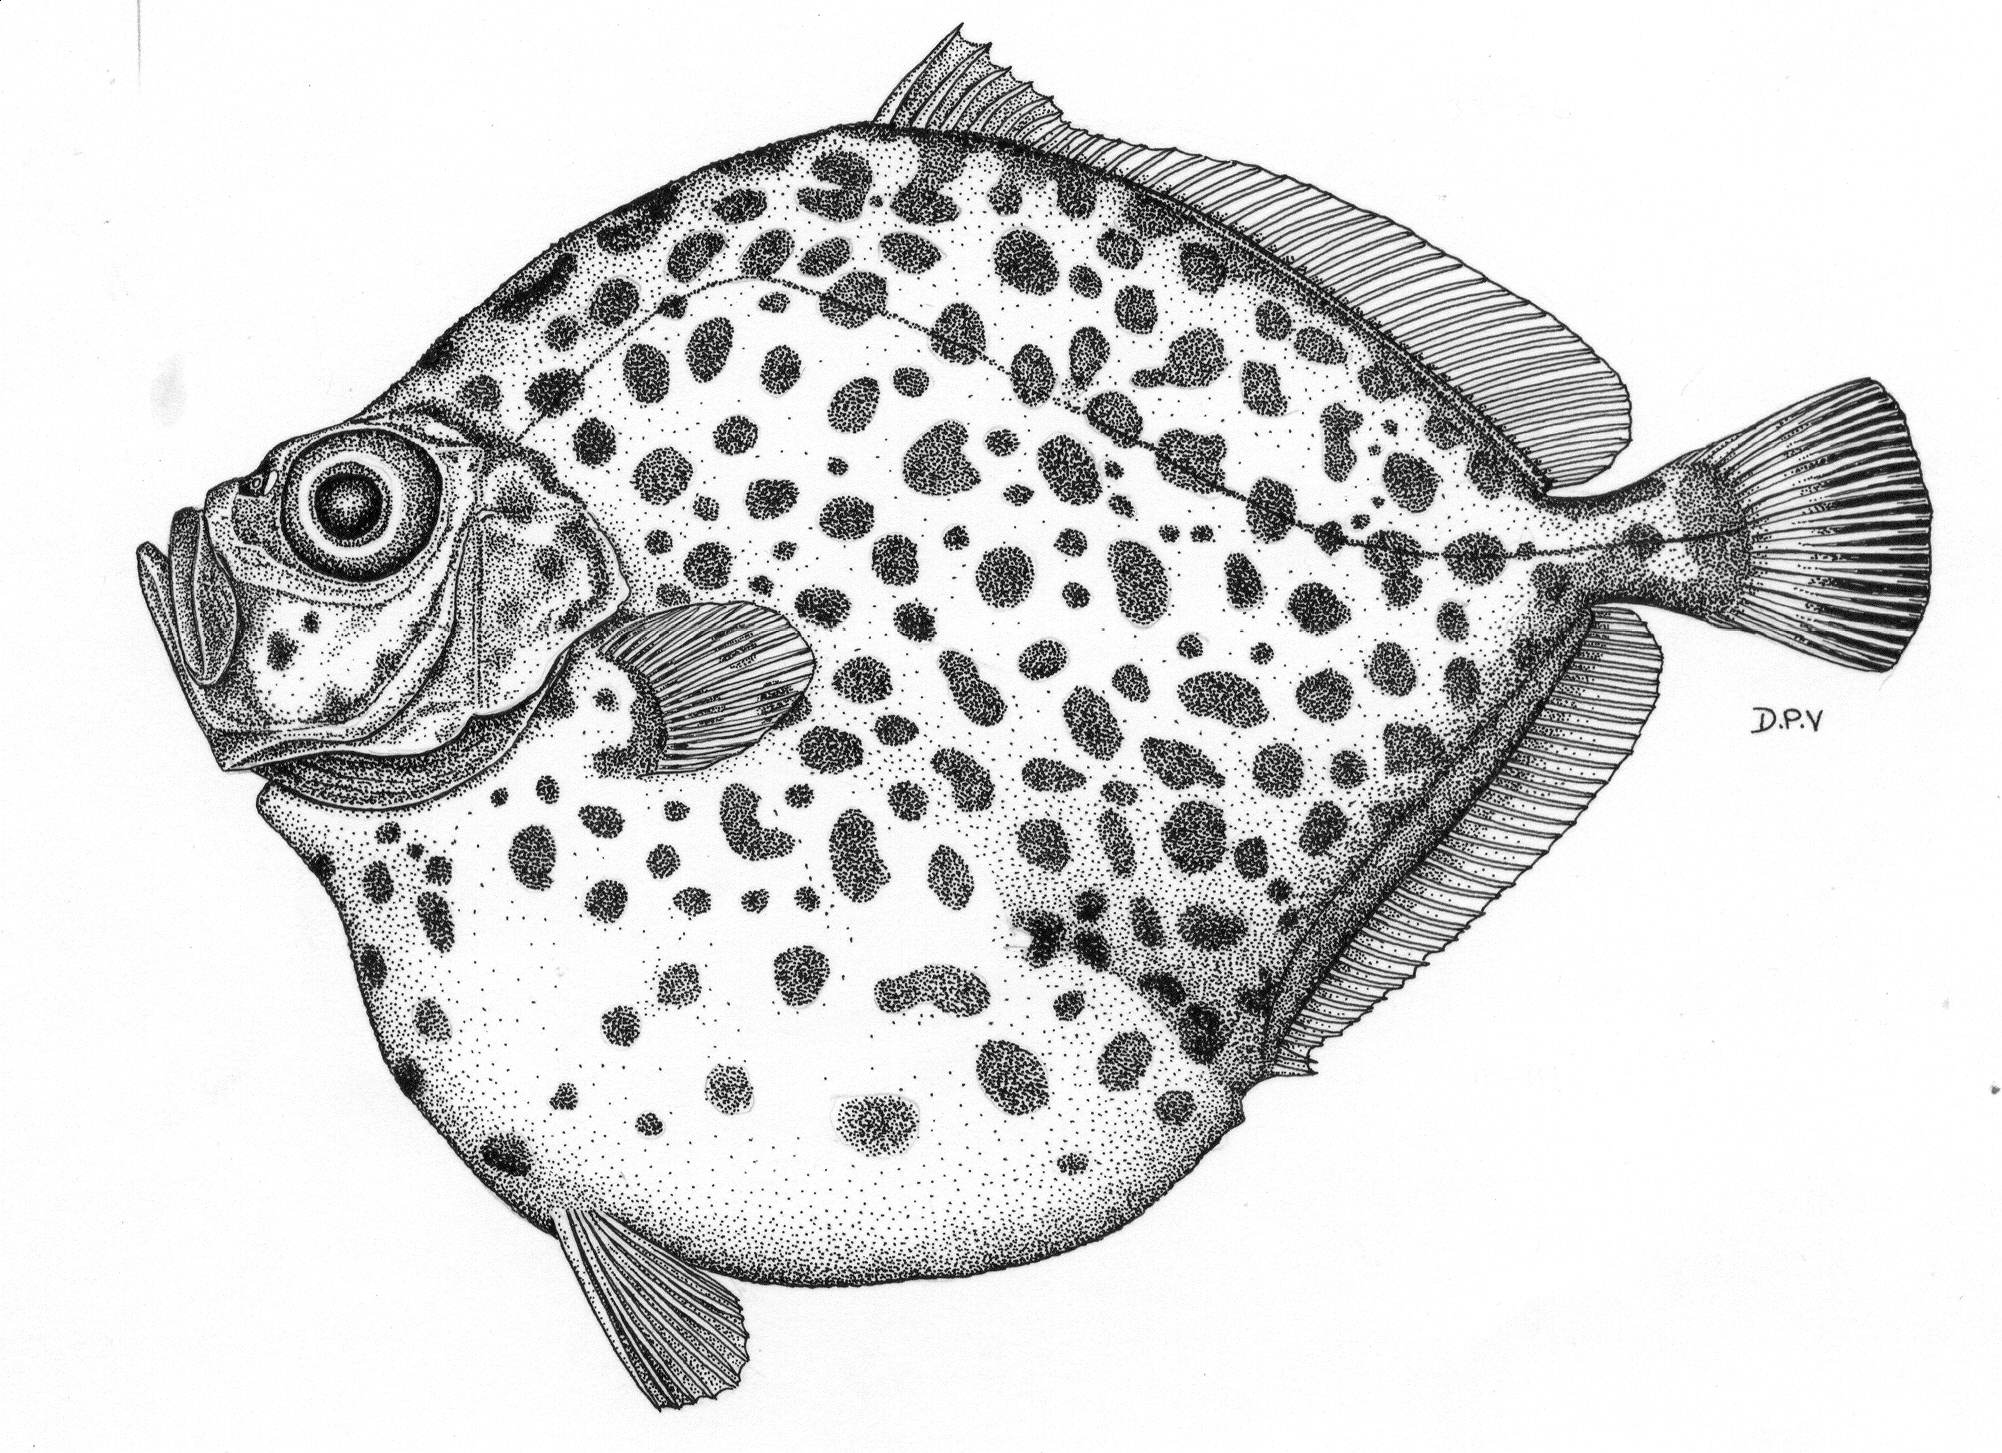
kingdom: Animalia
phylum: Chordata
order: Zeiformes
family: Oreosomatidae
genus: Pseudocyttus
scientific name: Pseudocyttus maculatus
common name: Round oreo
